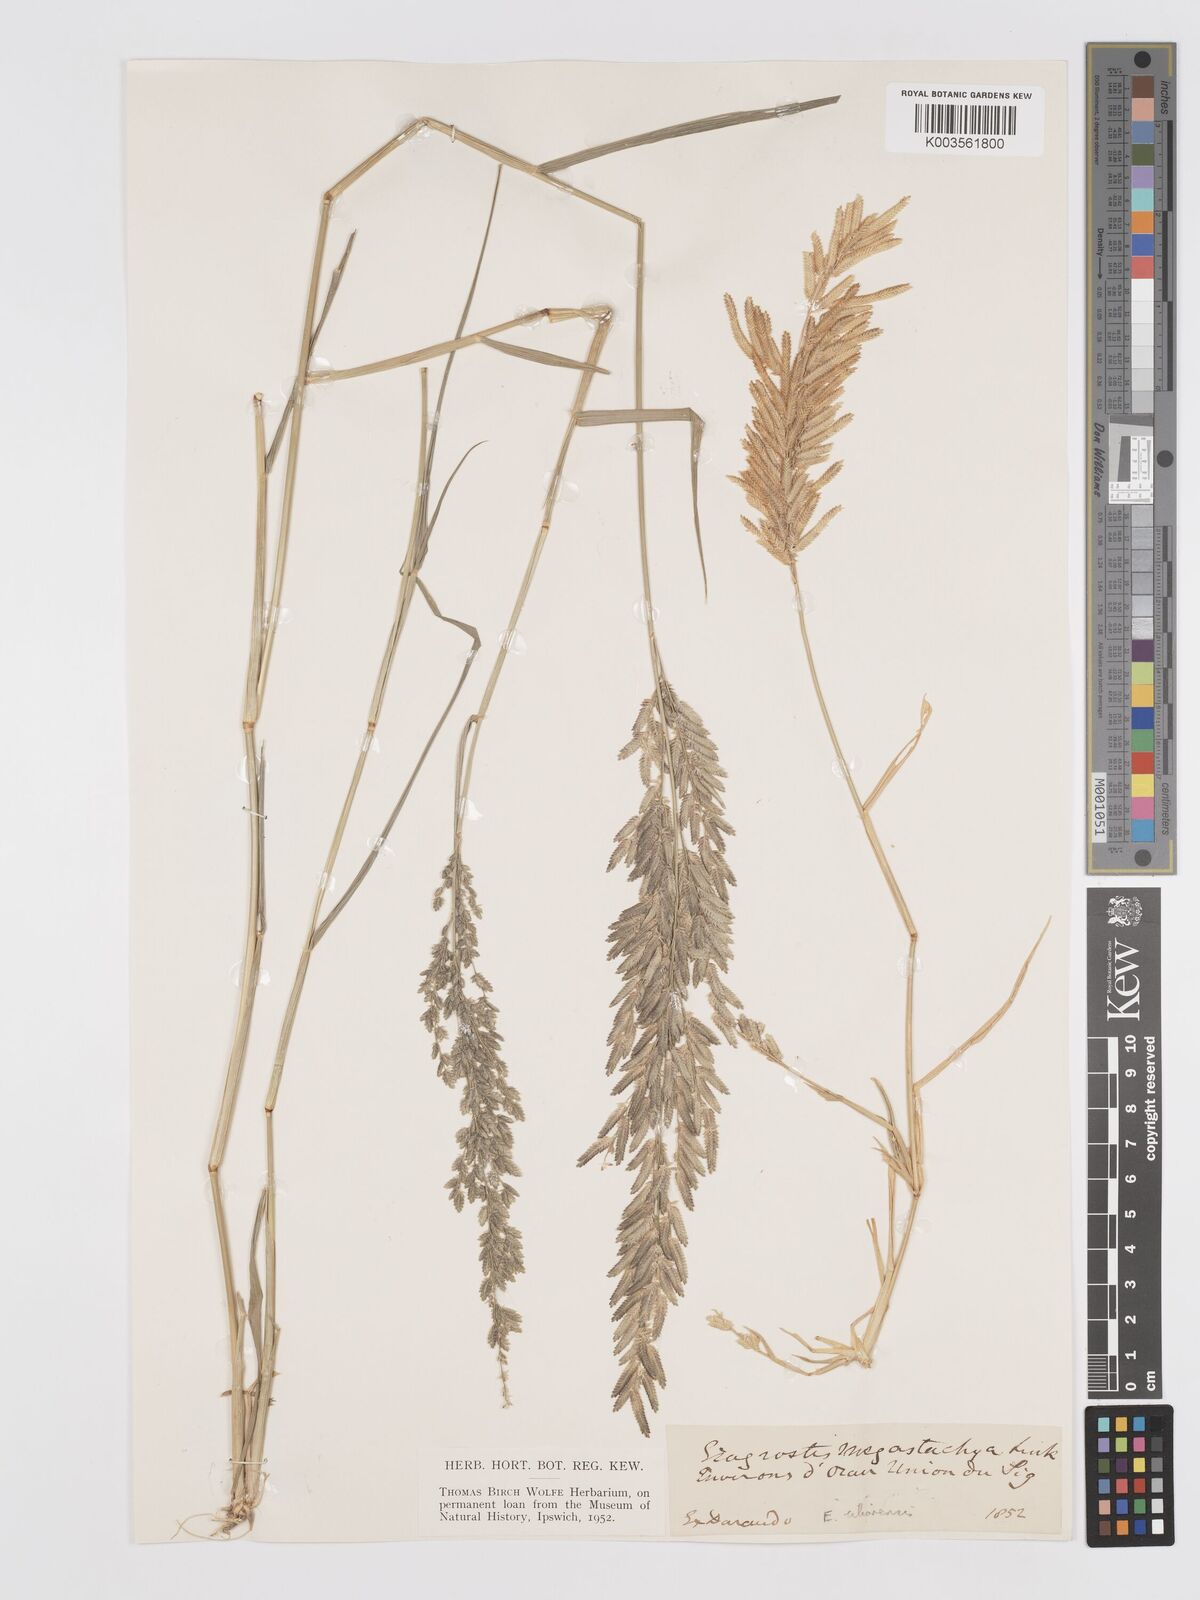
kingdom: Plantae
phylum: Tracheophyta
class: Liliopsida
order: Poales
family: Poaceae
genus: Eragrostis
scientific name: Eragrostis cilianensis
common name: Stinkgrass
